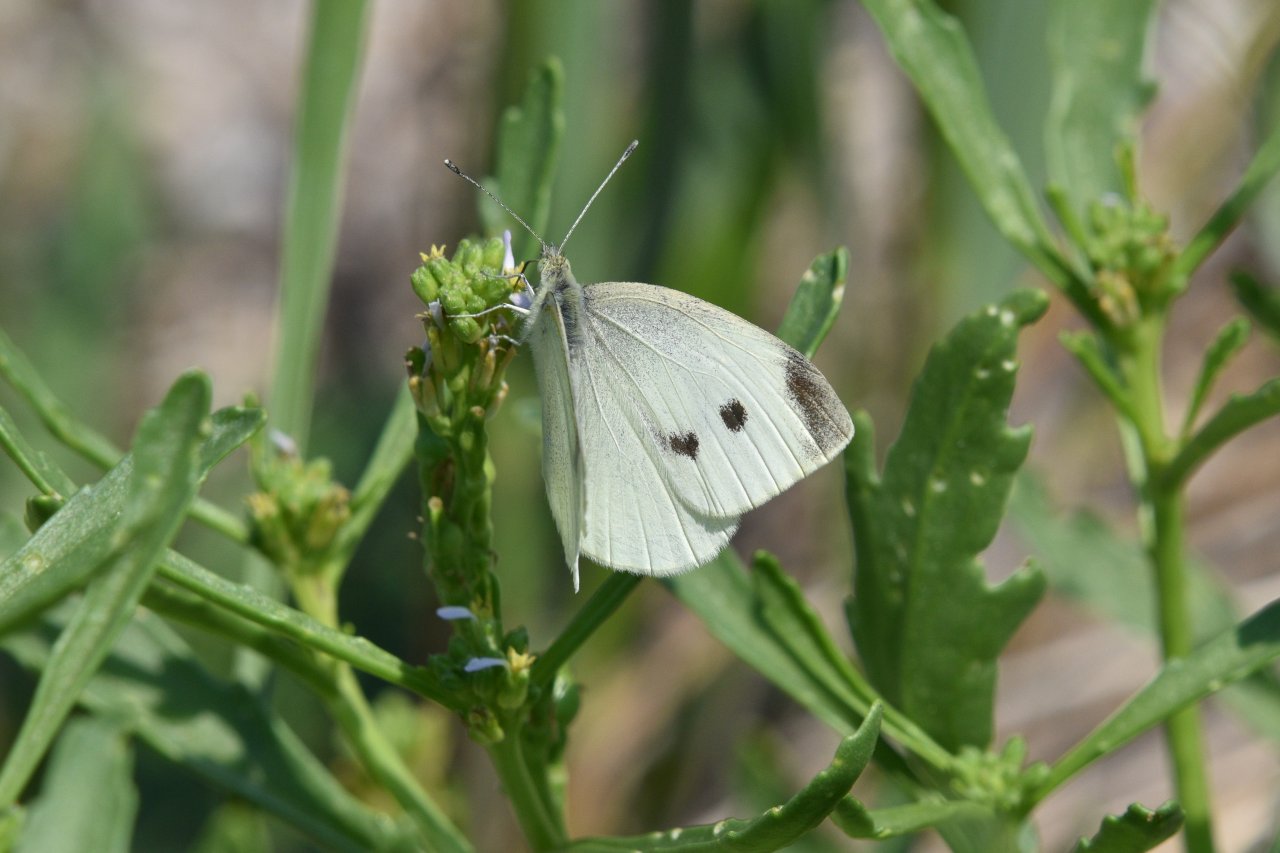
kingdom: Animalia
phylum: Arthropoda
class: Insecta
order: Lepidoptera
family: Pieridae
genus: Pieris
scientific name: Pieris rapae
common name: Cabbage White
